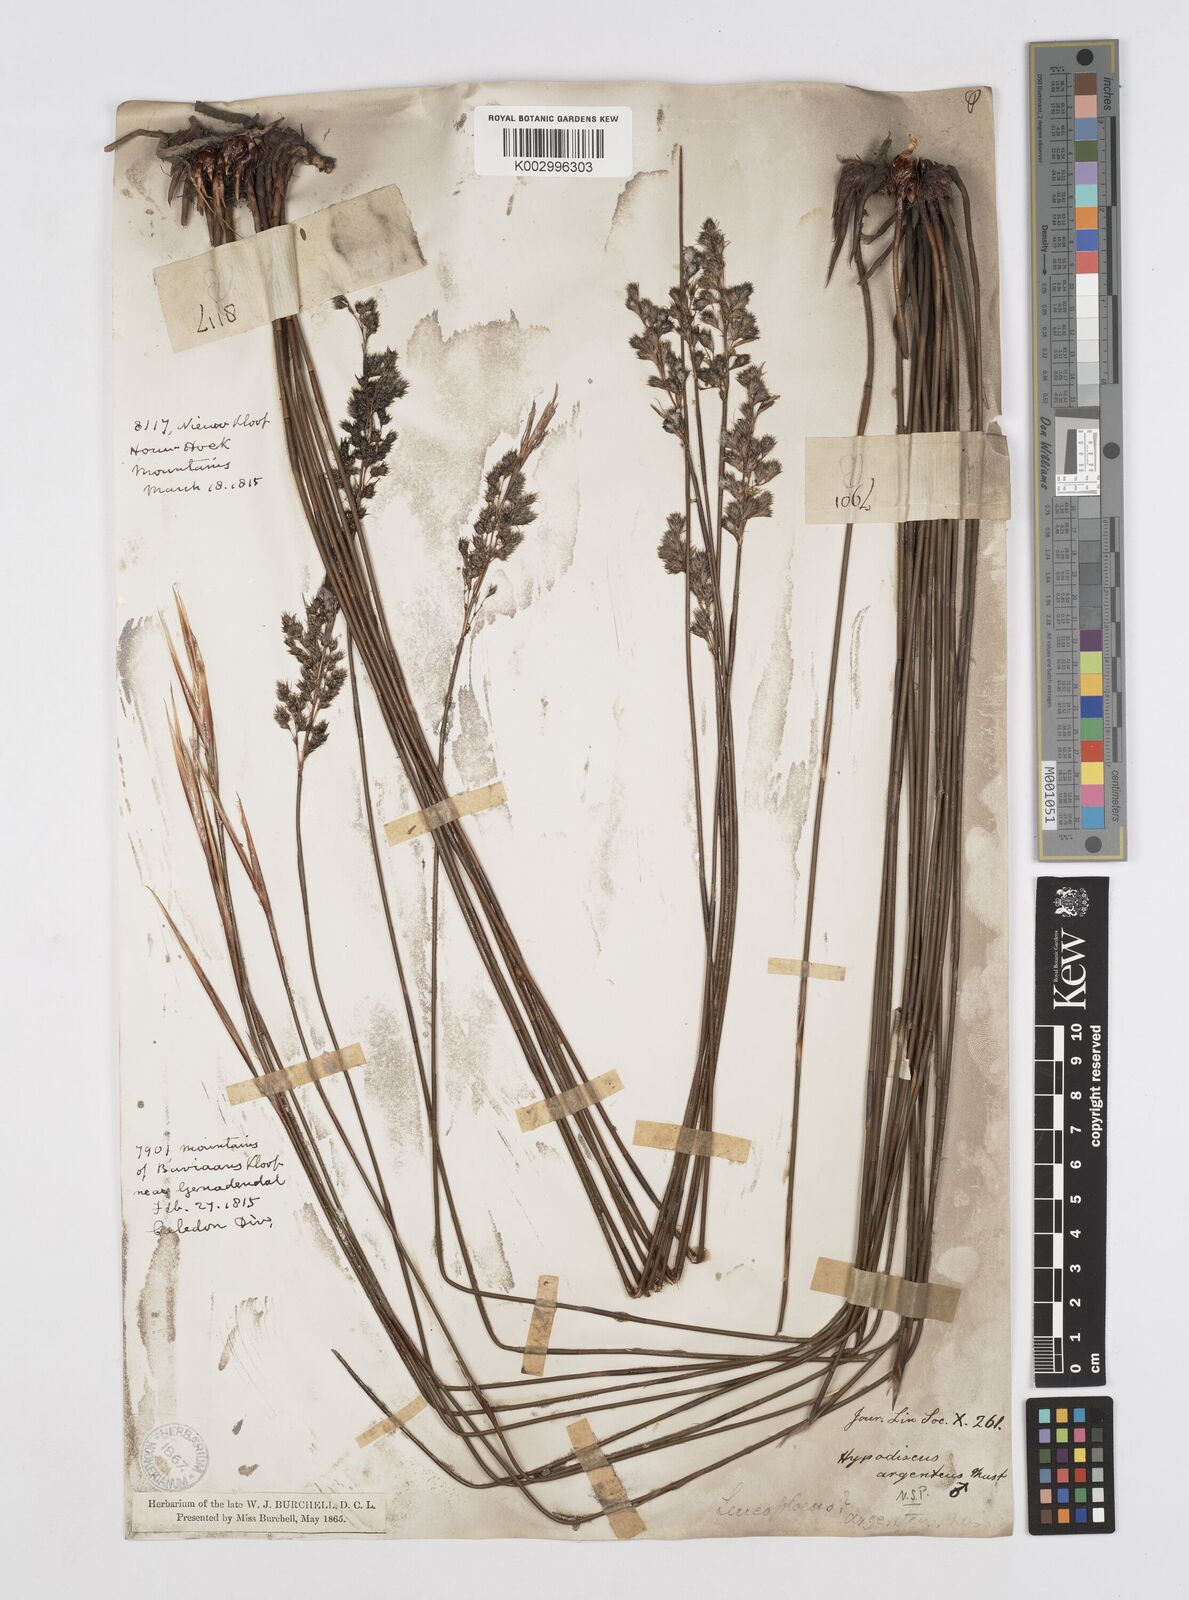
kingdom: Plantae
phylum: Tracheophyta
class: Liliopsida
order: Poales
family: Restionaceae
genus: Hypodiscus
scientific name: Hypodiscus argenteus
